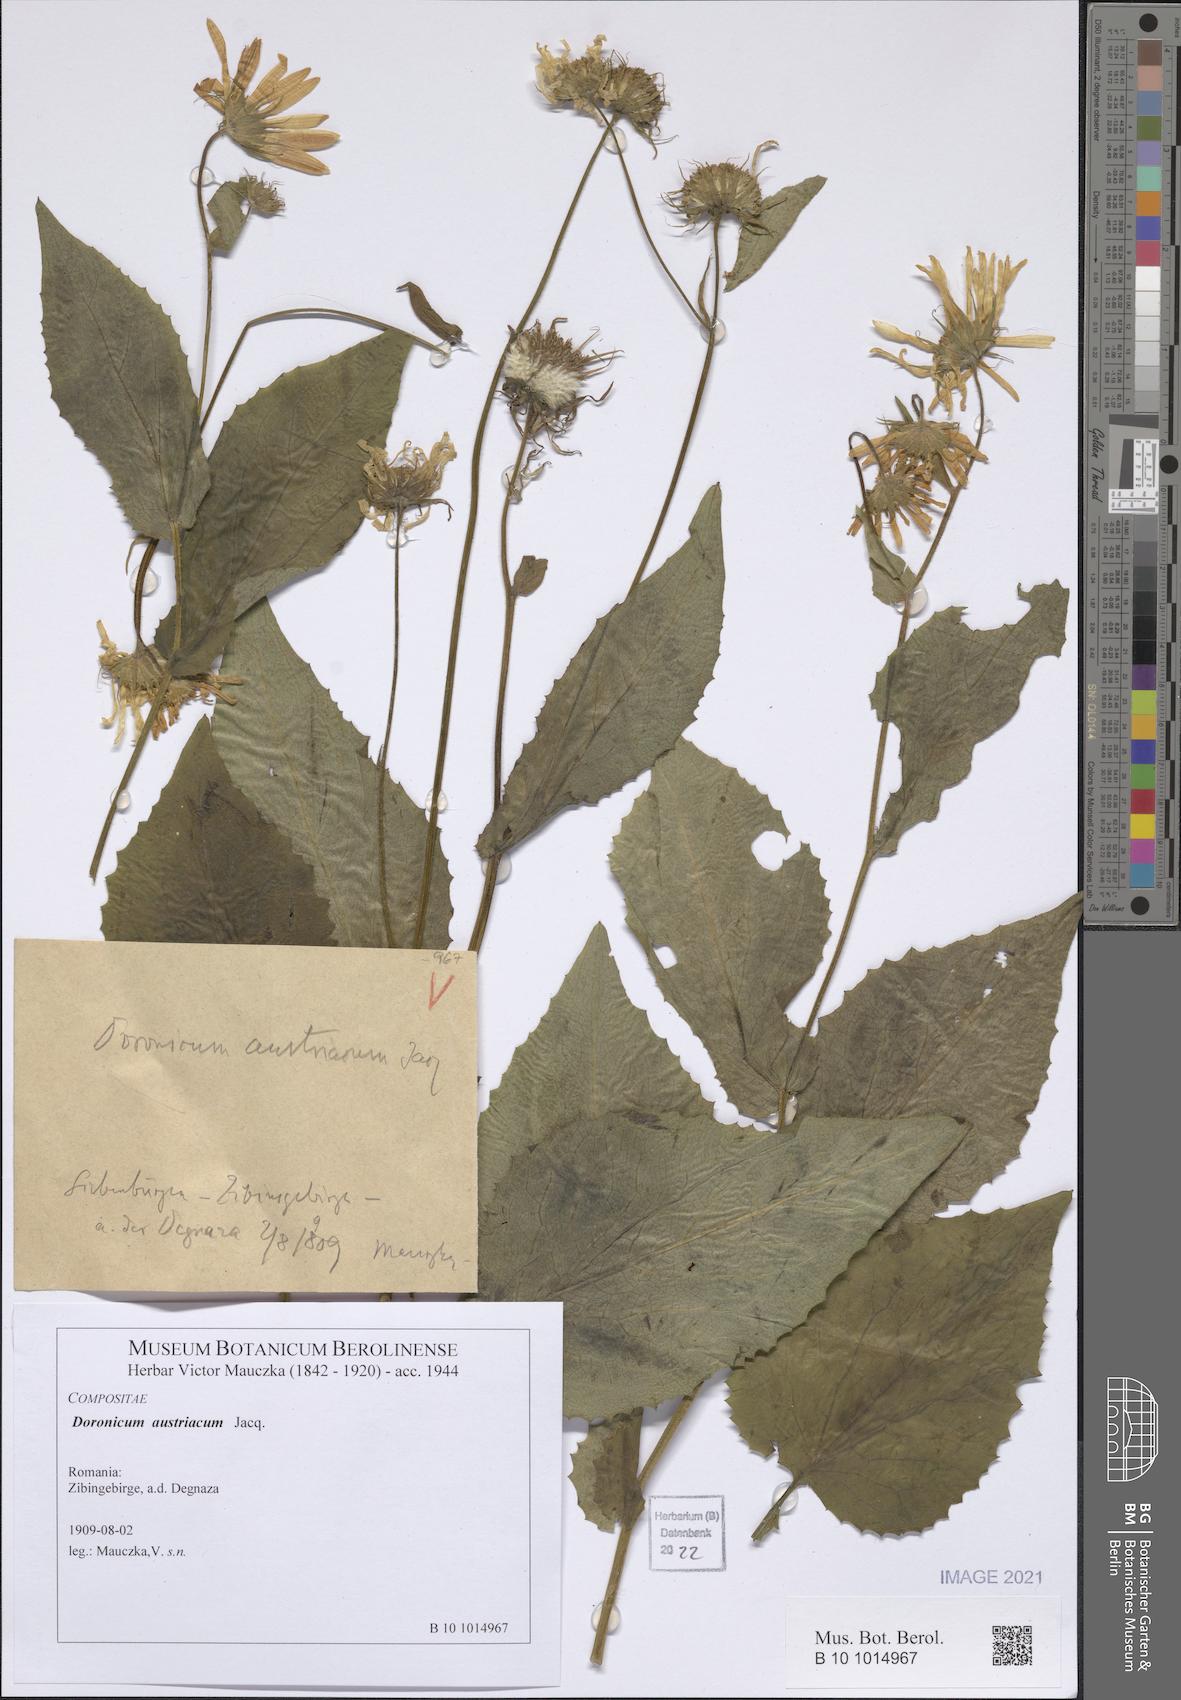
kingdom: Plantae
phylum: Tracheophyta
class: Magnoliopsida
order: Asterales
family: Asteraceae
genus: Doronicum
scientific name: Doronicum austriacum
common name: Austrian leopard's-bane
